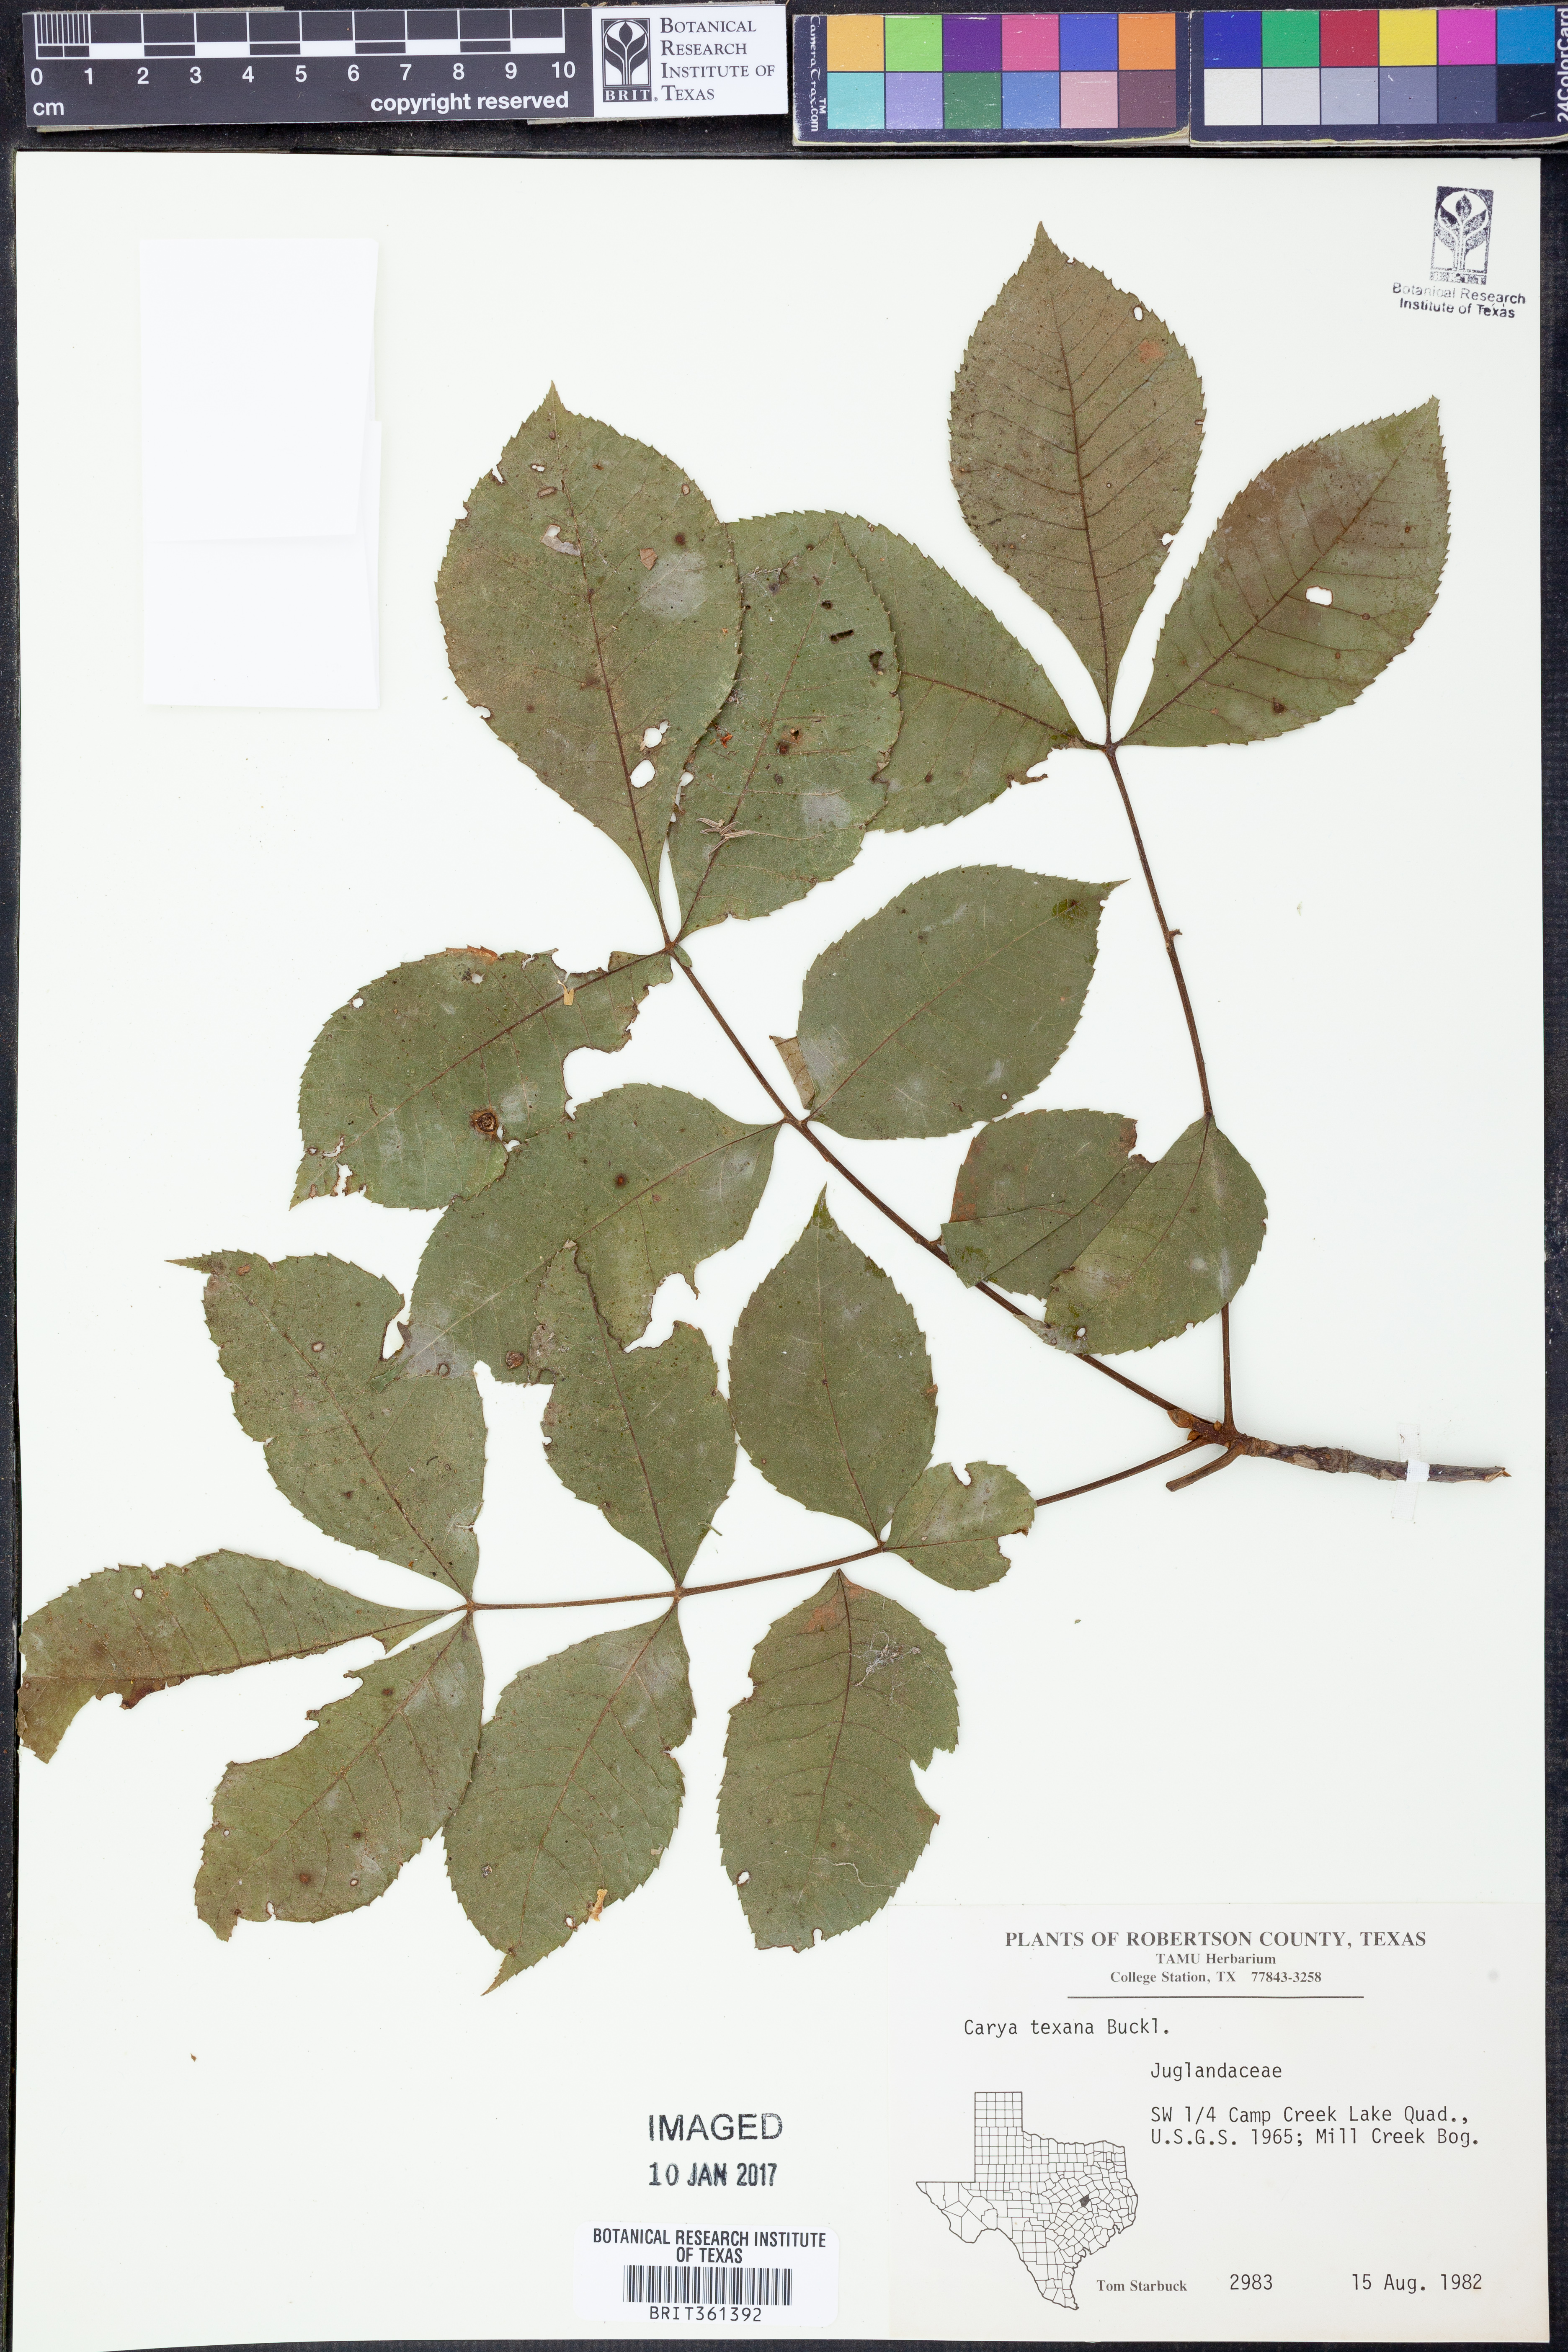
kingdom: Plantae
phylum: Tracheophyta
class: Magnoliopsida
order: Fagales
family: Juglandaceae
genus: Carya
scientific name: Carya texana
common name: Black hickory
